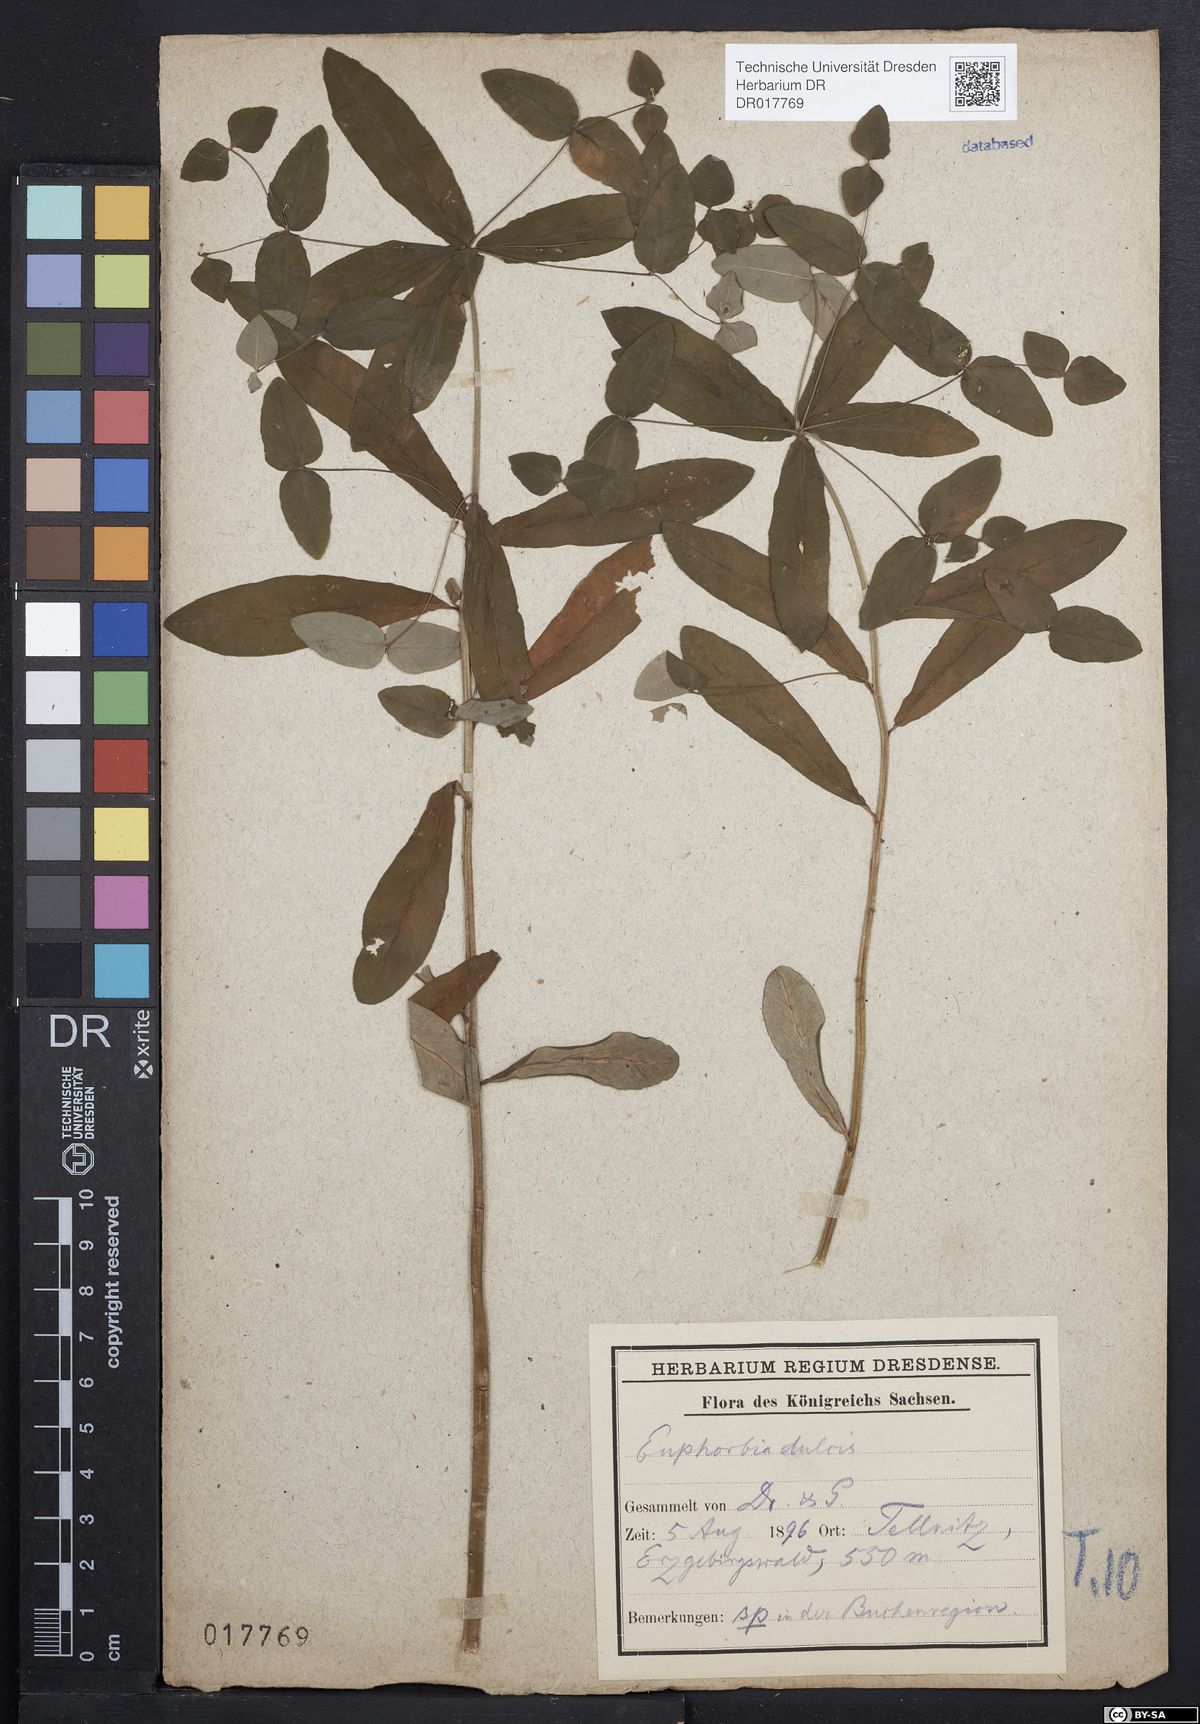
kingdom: Plantae
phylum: Tracheophyta
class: Magnoliopsida
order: Malpighiales
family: Euphorbiaceae
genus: Euphorbia
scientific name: Euphorbia dulcis
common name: Sweet spurge
